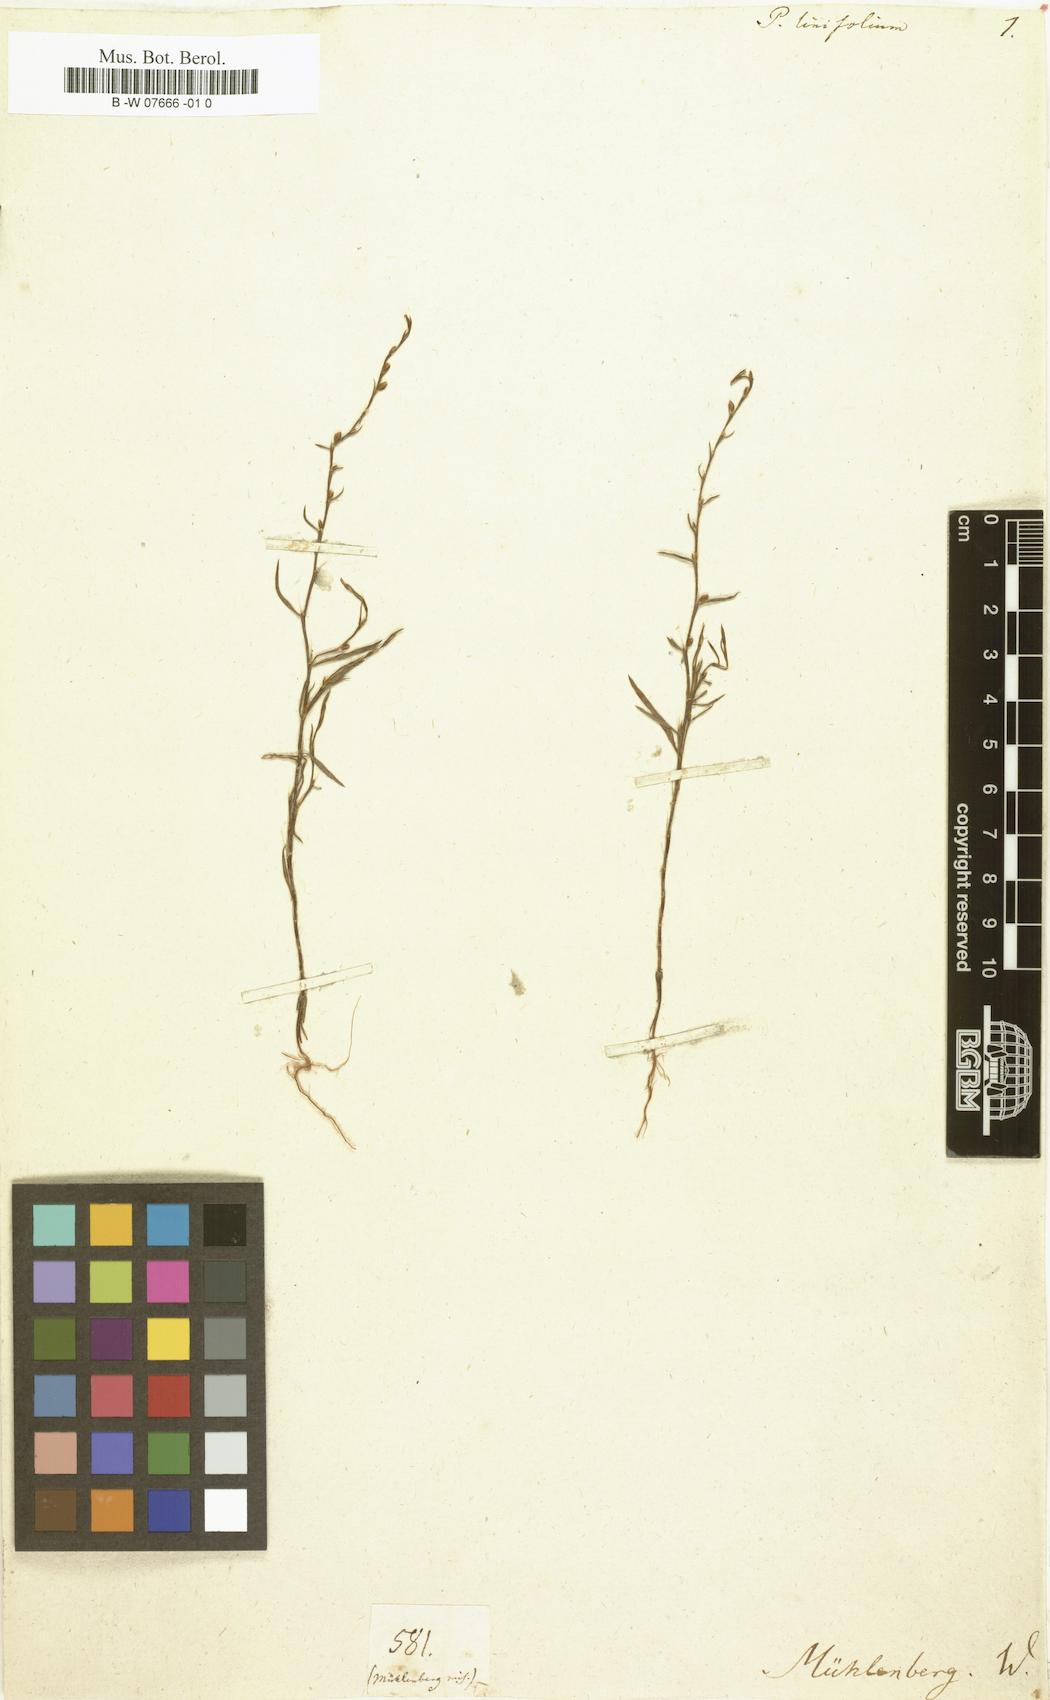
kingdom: Plantae
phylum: Tracheophyta
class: Magnoliopsida
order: Caryophyllales
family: Polygonaceae
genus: Polygonum
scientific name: Polygonum
